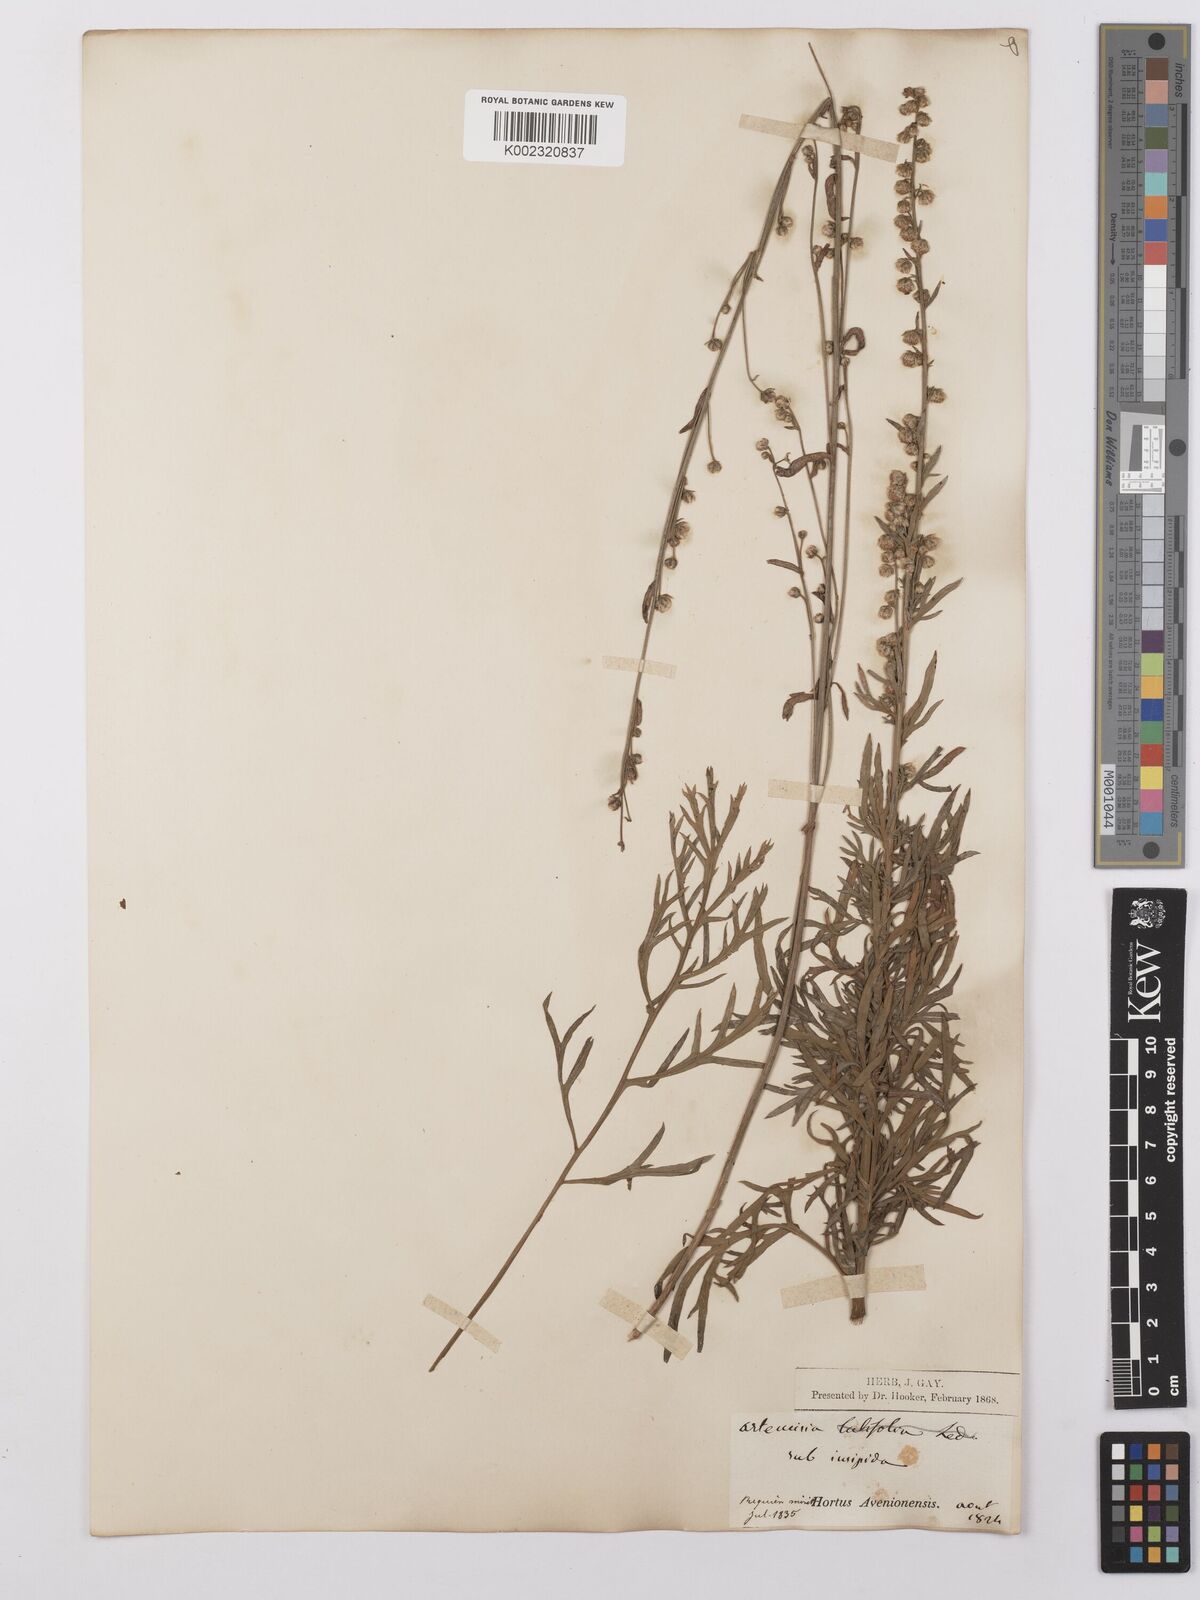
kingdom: Plantae
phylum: Tracheophyta
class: Magnoliopsida
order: Asterales
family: Asteraceae
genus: Artemisia
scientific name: Artemisia insipida
